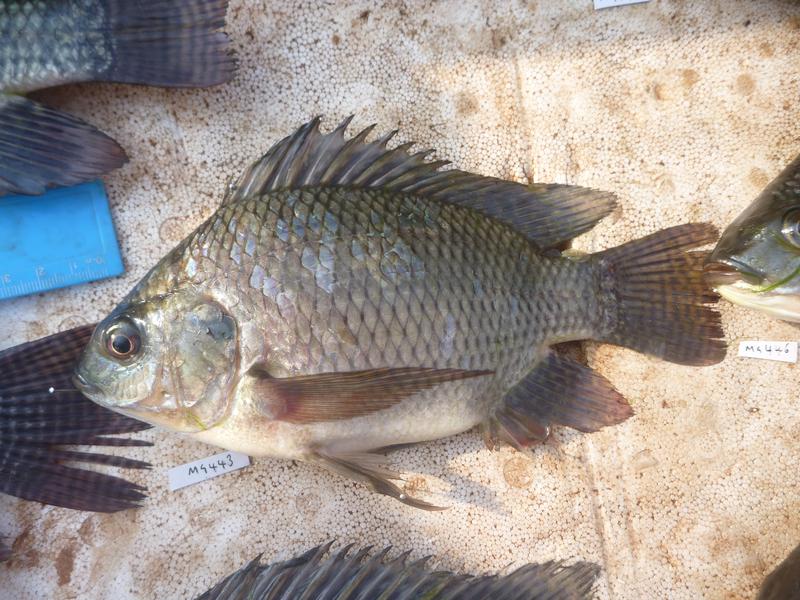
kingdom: Animalia
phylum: Chordata
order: Perciformes
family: Cichlidae
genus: Oreochromis
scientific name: Oreochromis niloticus
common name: Nile tilapia
